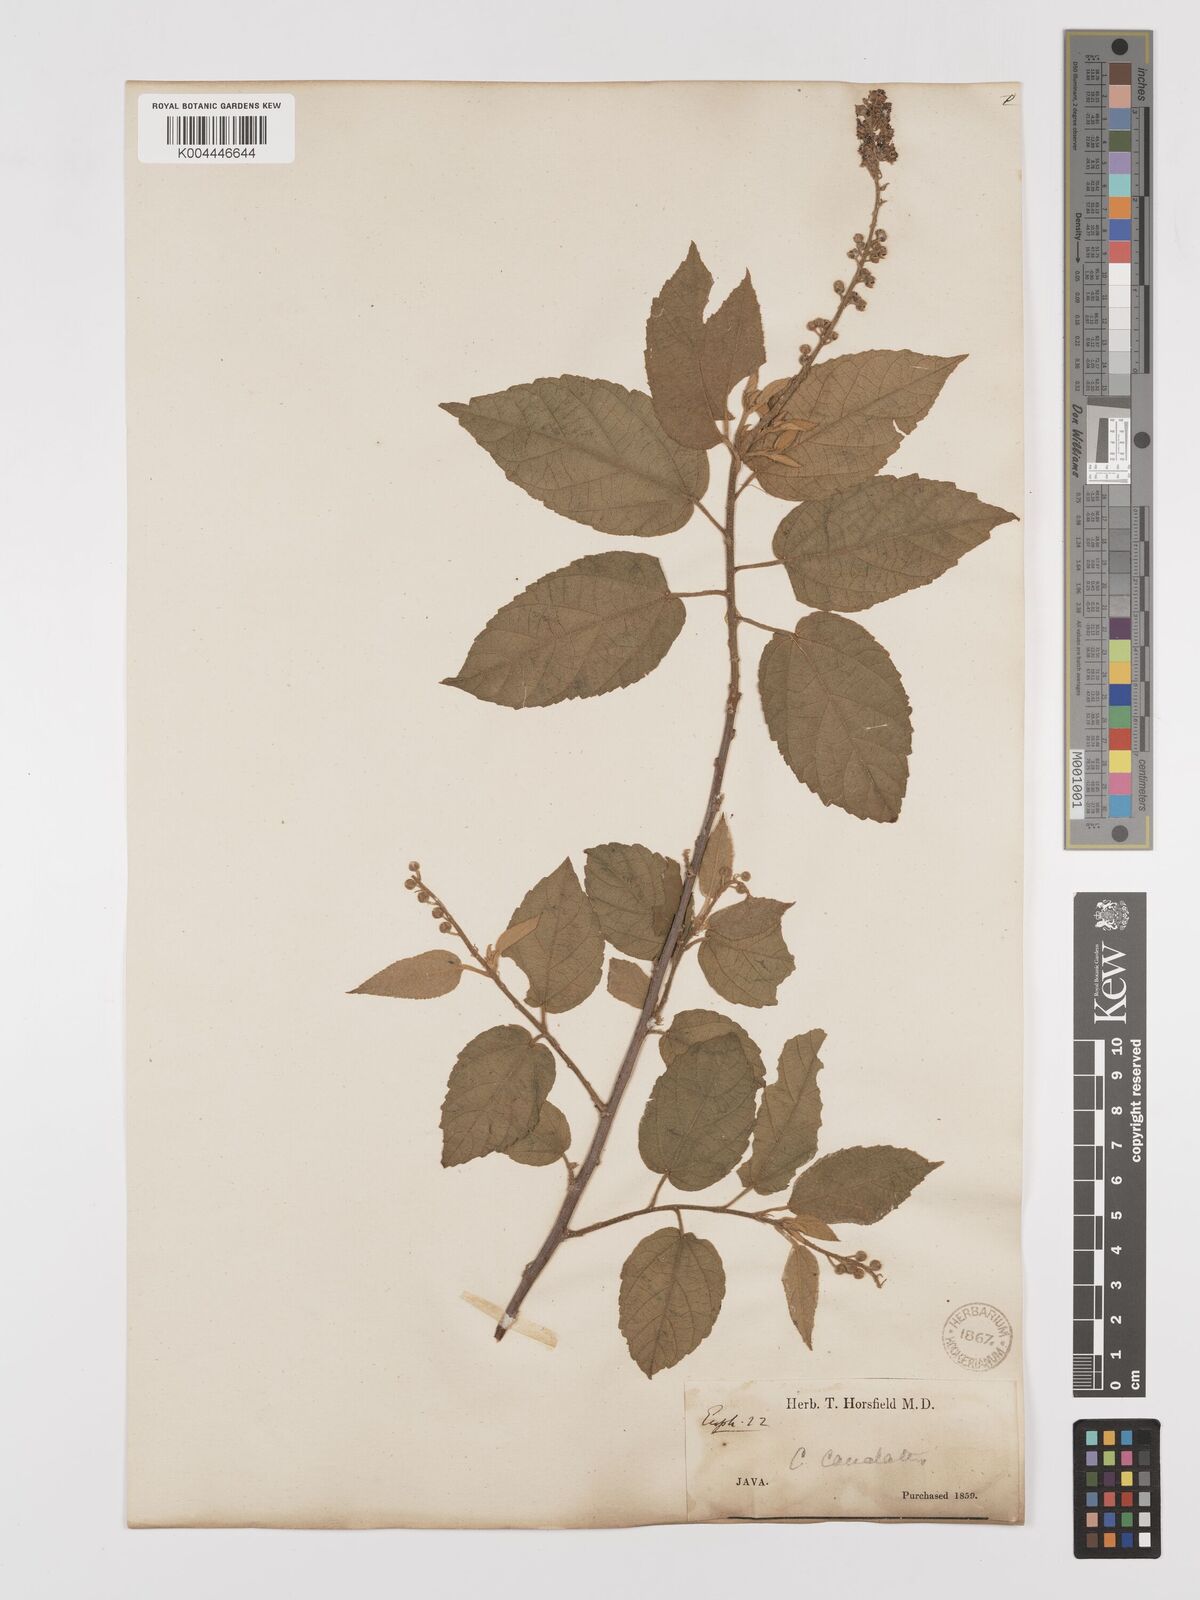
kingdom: Plantae
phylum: Tracheophyta
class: Magnoliopsida
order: Malpighiales
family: Euphorbiaceae
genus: Croton
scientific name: Croton caudatus
